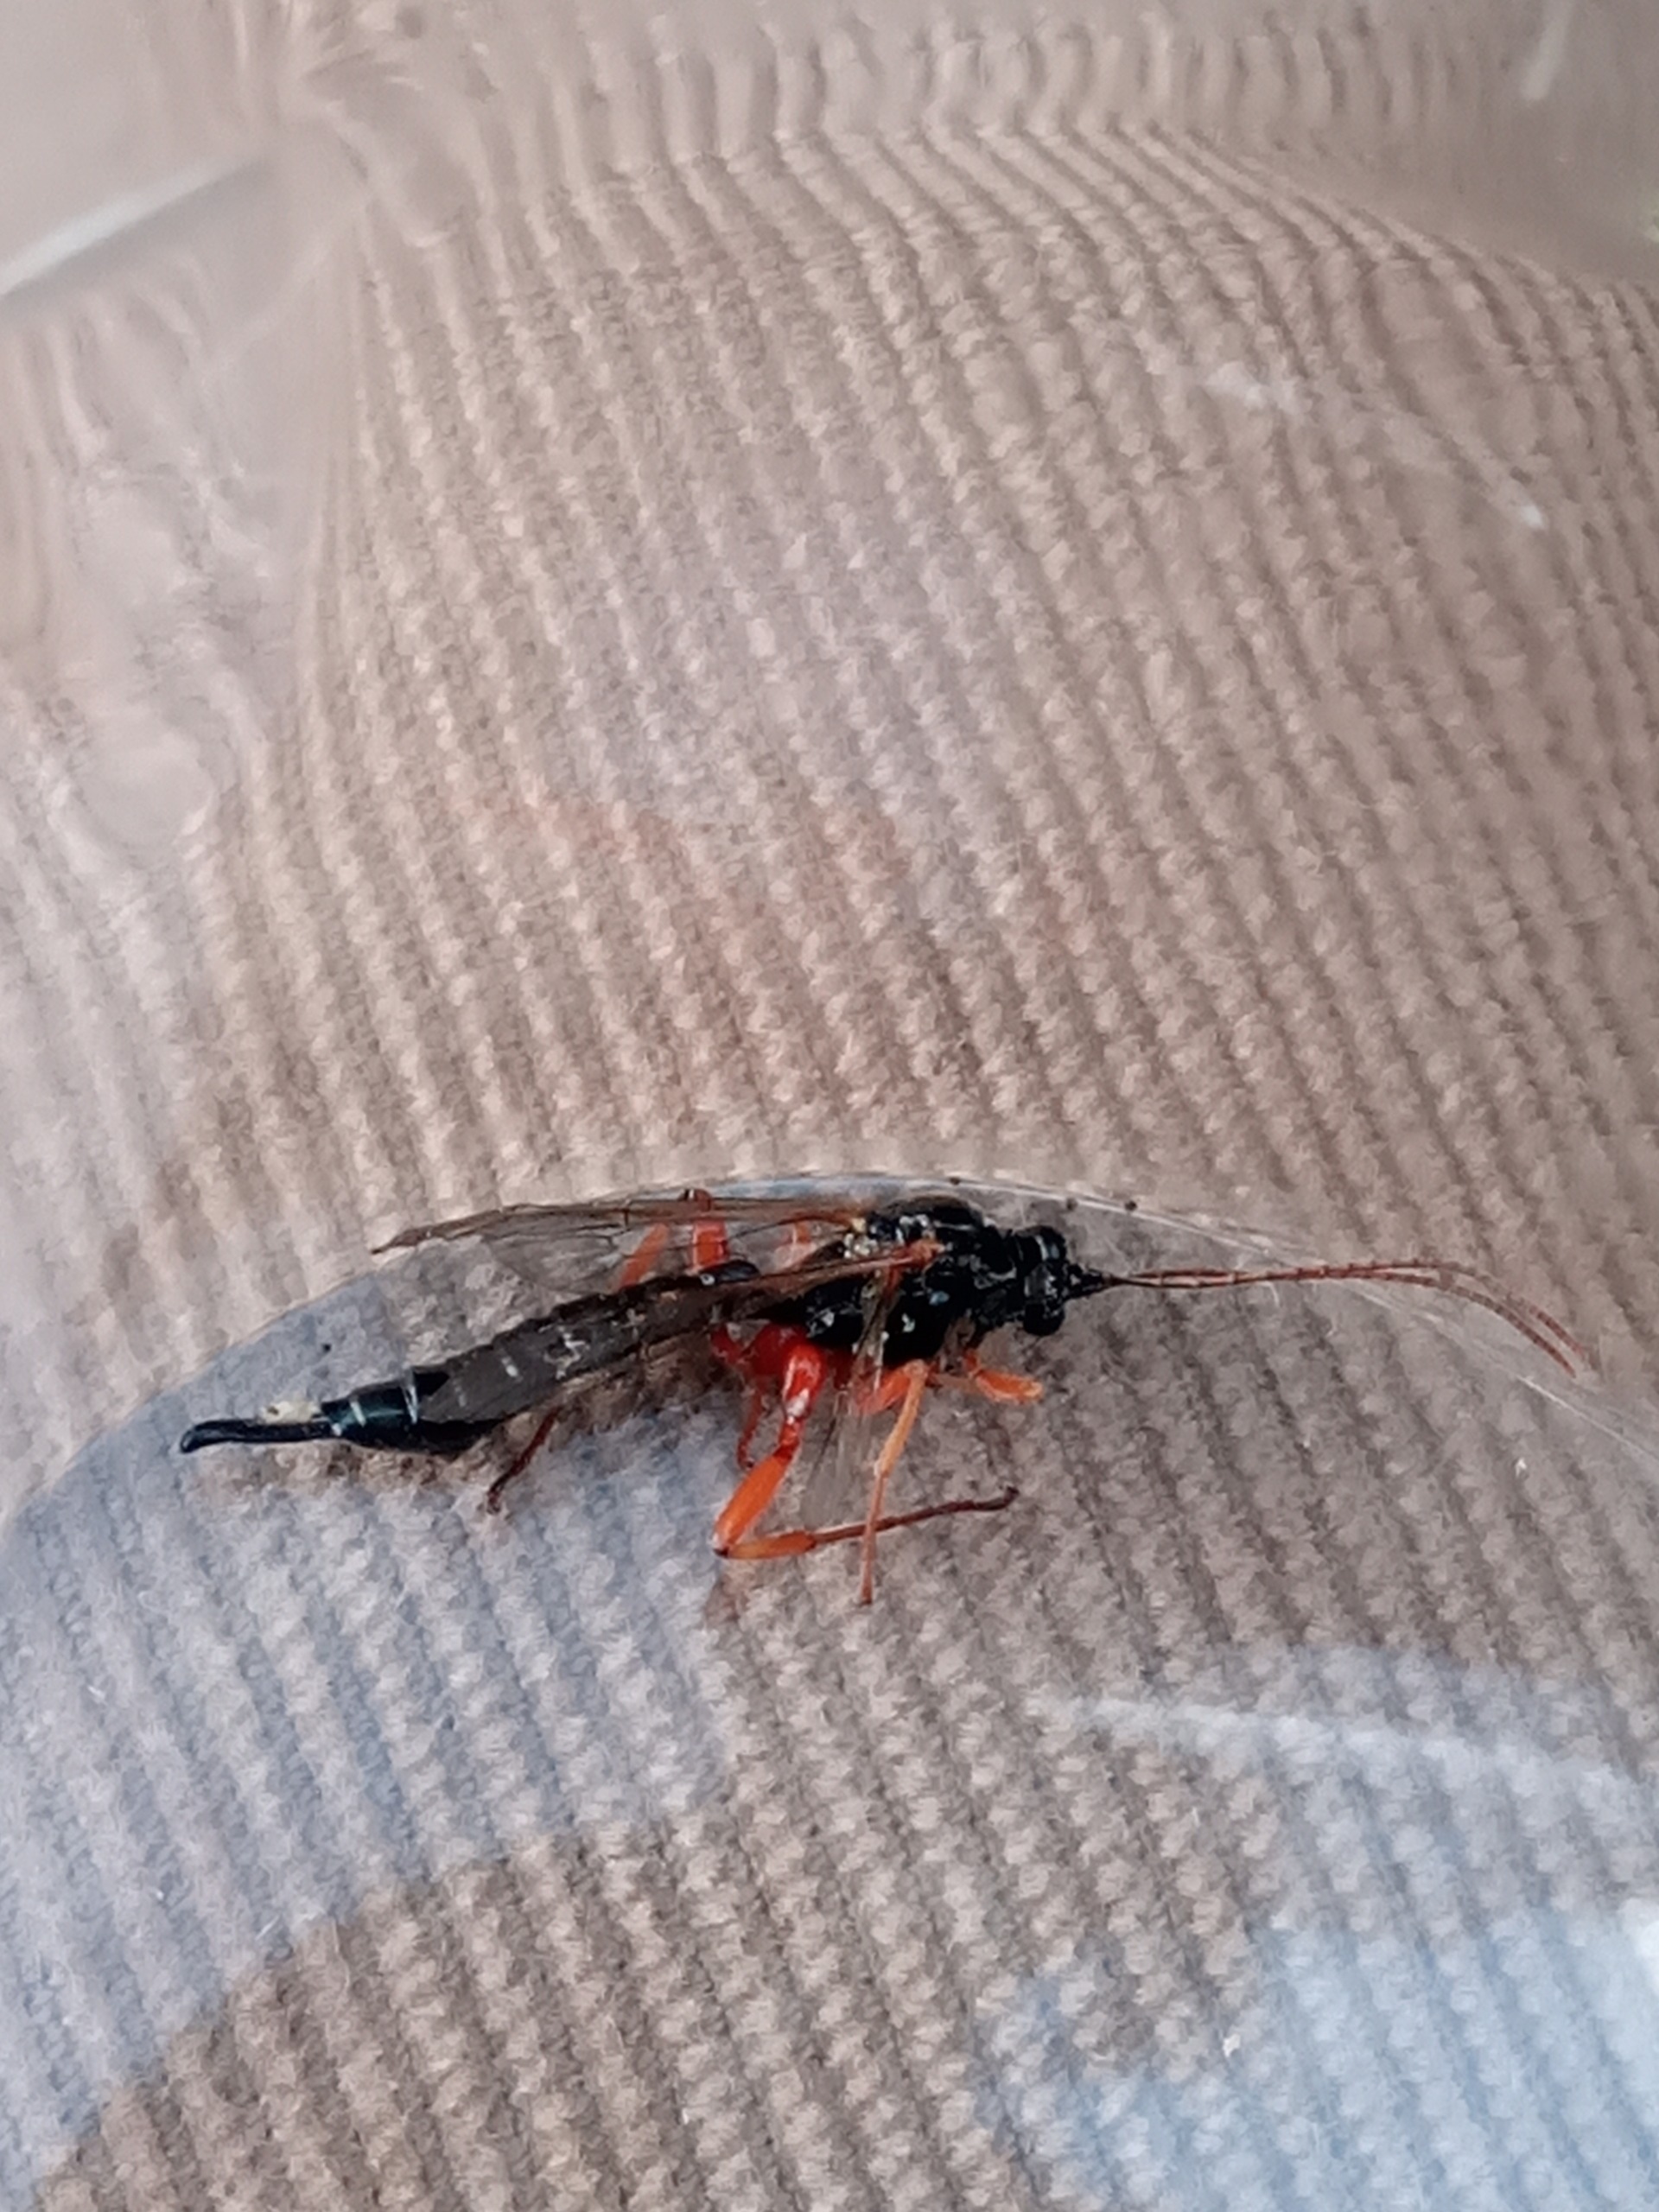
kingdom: Animalia
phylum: Arthropoda
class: Insecta
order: Hymenoptera
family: Ichneumonidae
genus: Apechthis
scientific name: Apechthis
